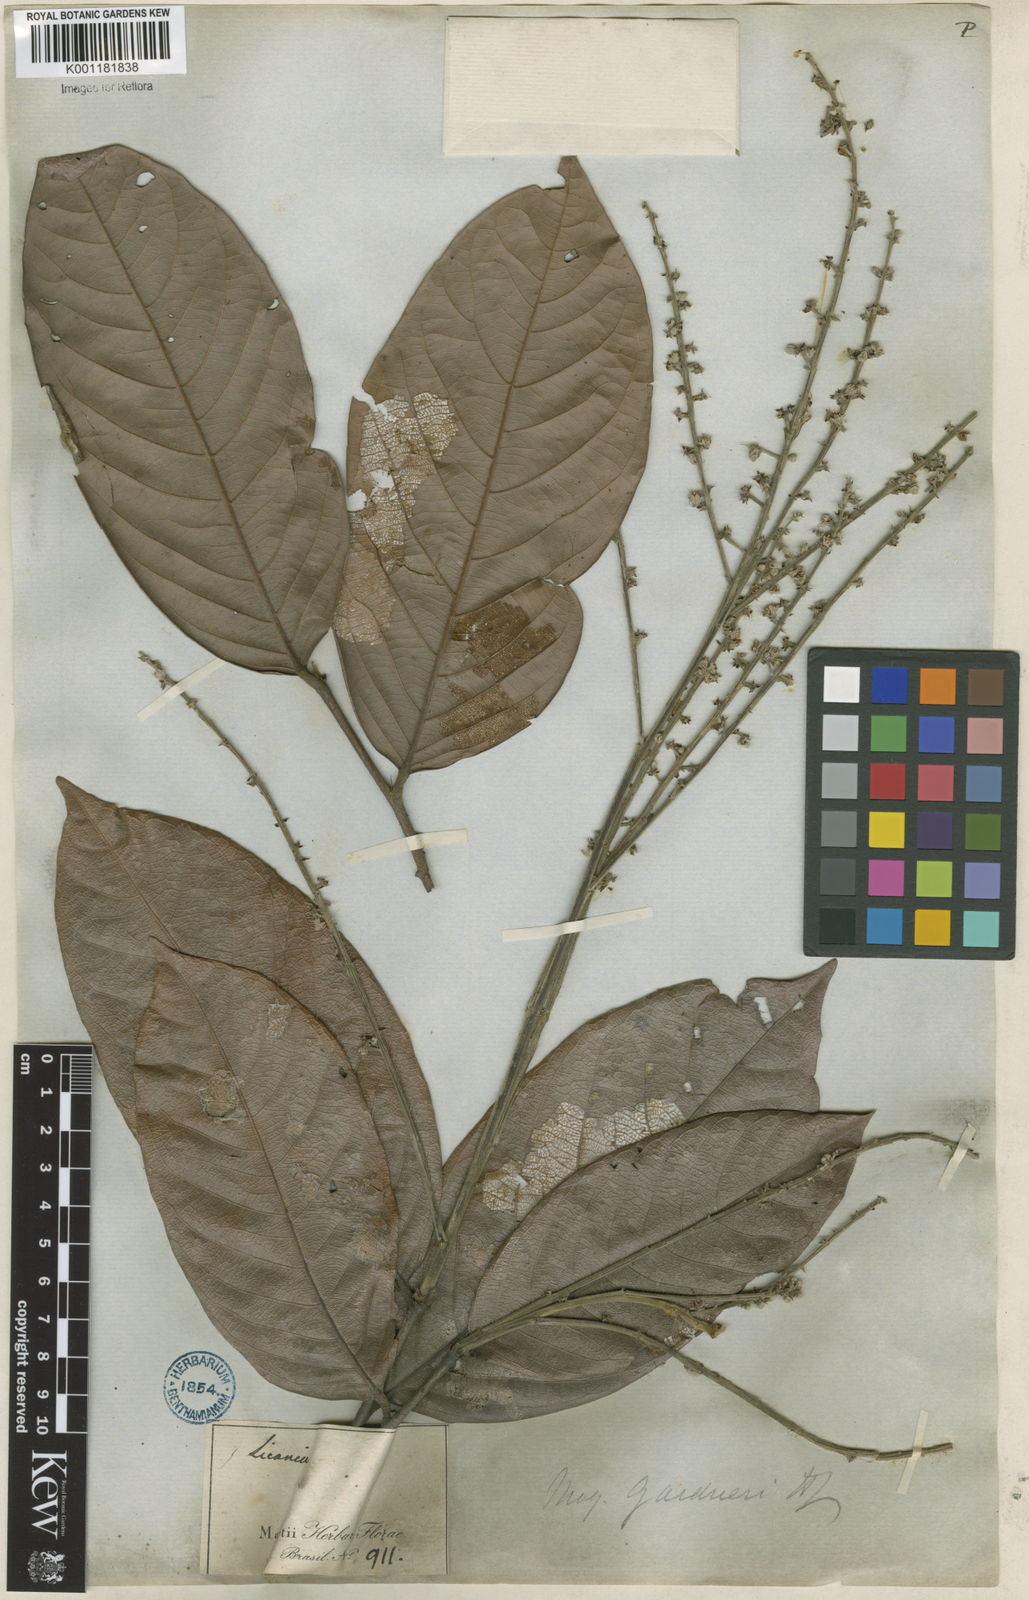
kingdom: Plantae
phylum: Tracheophyta
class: Magnoliopsida
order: Malpighiales
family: Chrysobalanaceae
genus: Leptobalanus
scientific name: Leptobalanus gardneri
